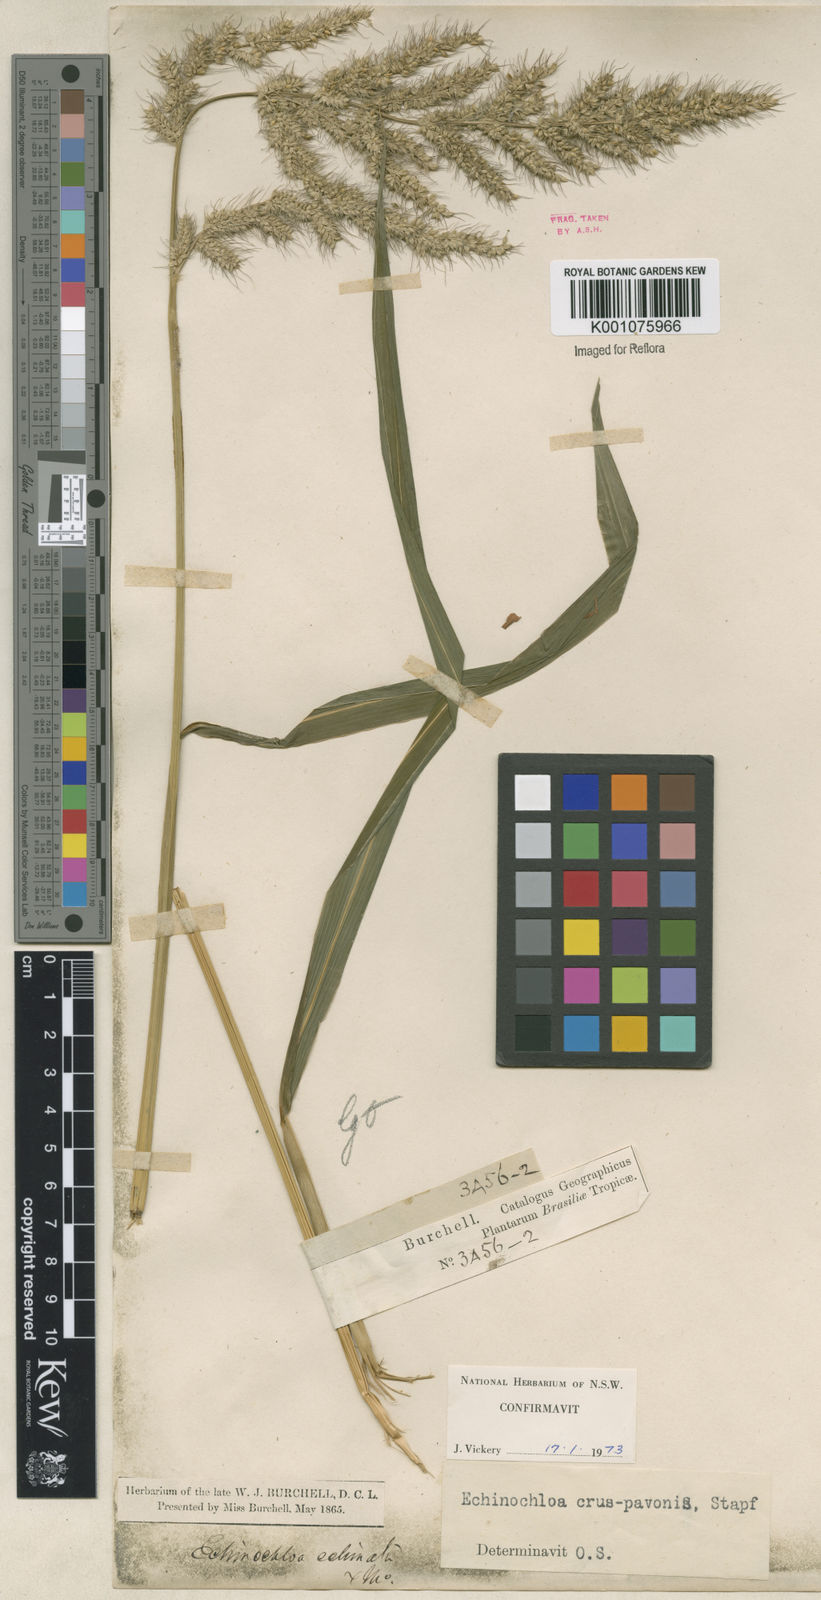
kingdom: Plantae
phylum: Tracheophyta
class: Liliopsida
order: Poales
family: Poaceae
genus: Echinochloa
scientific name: Echinochloa crus-pavonis
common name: Gulf cockspur grass
